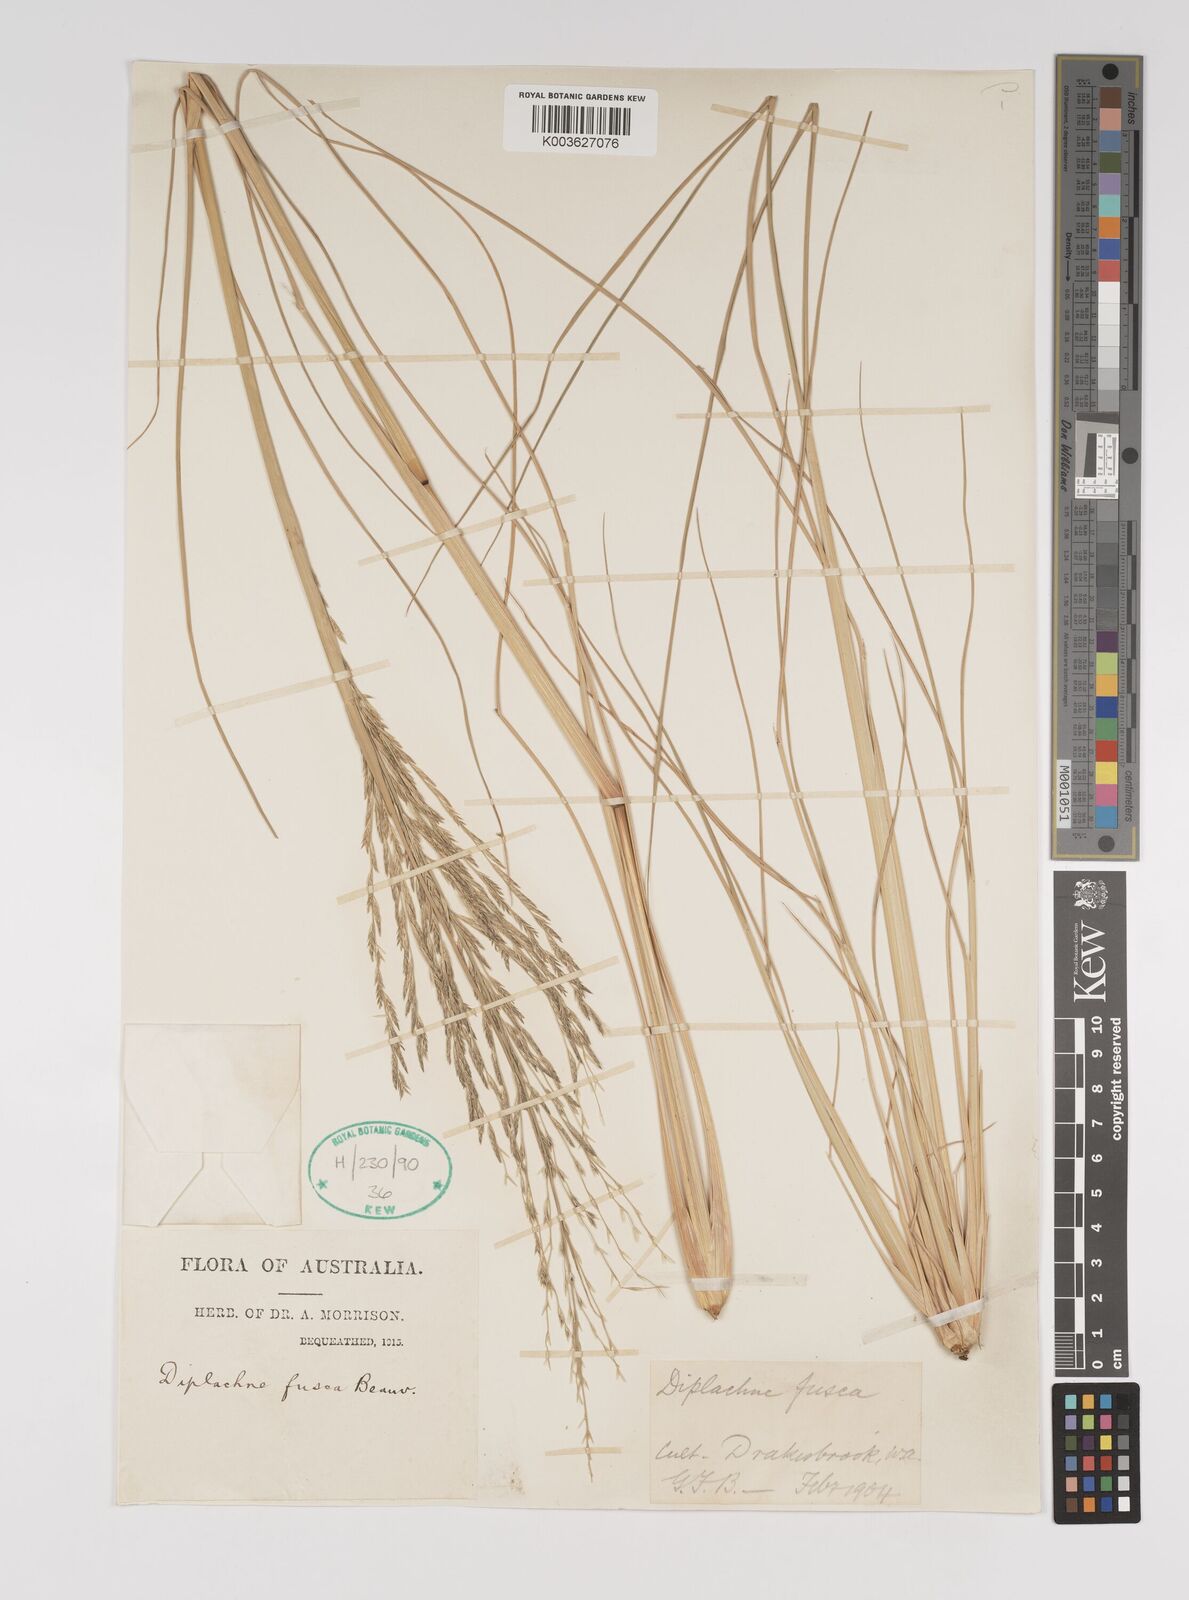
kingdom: Plantae
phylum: Tracheophyta
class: Liliopsida
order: Poales
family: Poaceae
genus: Diplachne
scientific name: Diplachne fusca
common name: Brown beetle grass
